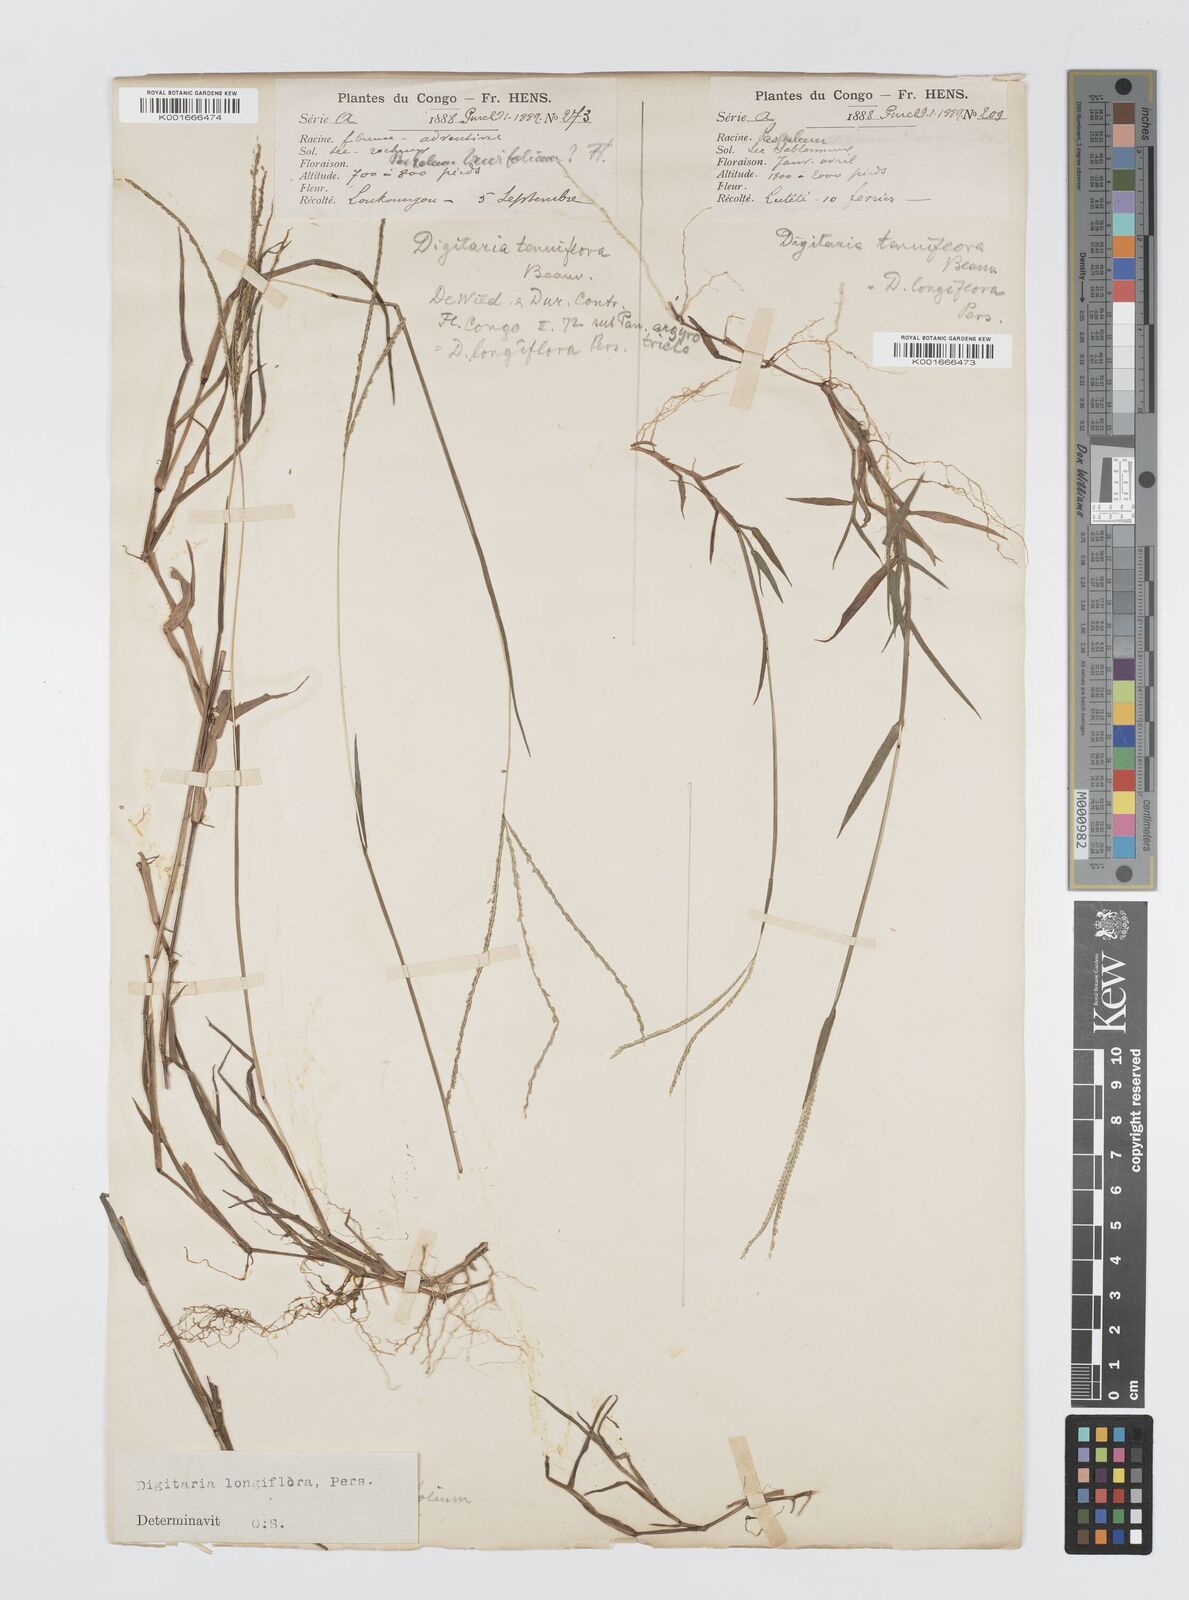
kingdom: Plantae
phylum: Tracheophyta
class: Liliopsida
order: Poales
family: Poaceae
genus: Digitaria
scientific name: Digitaria longiflora
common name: Wire crabgrass
